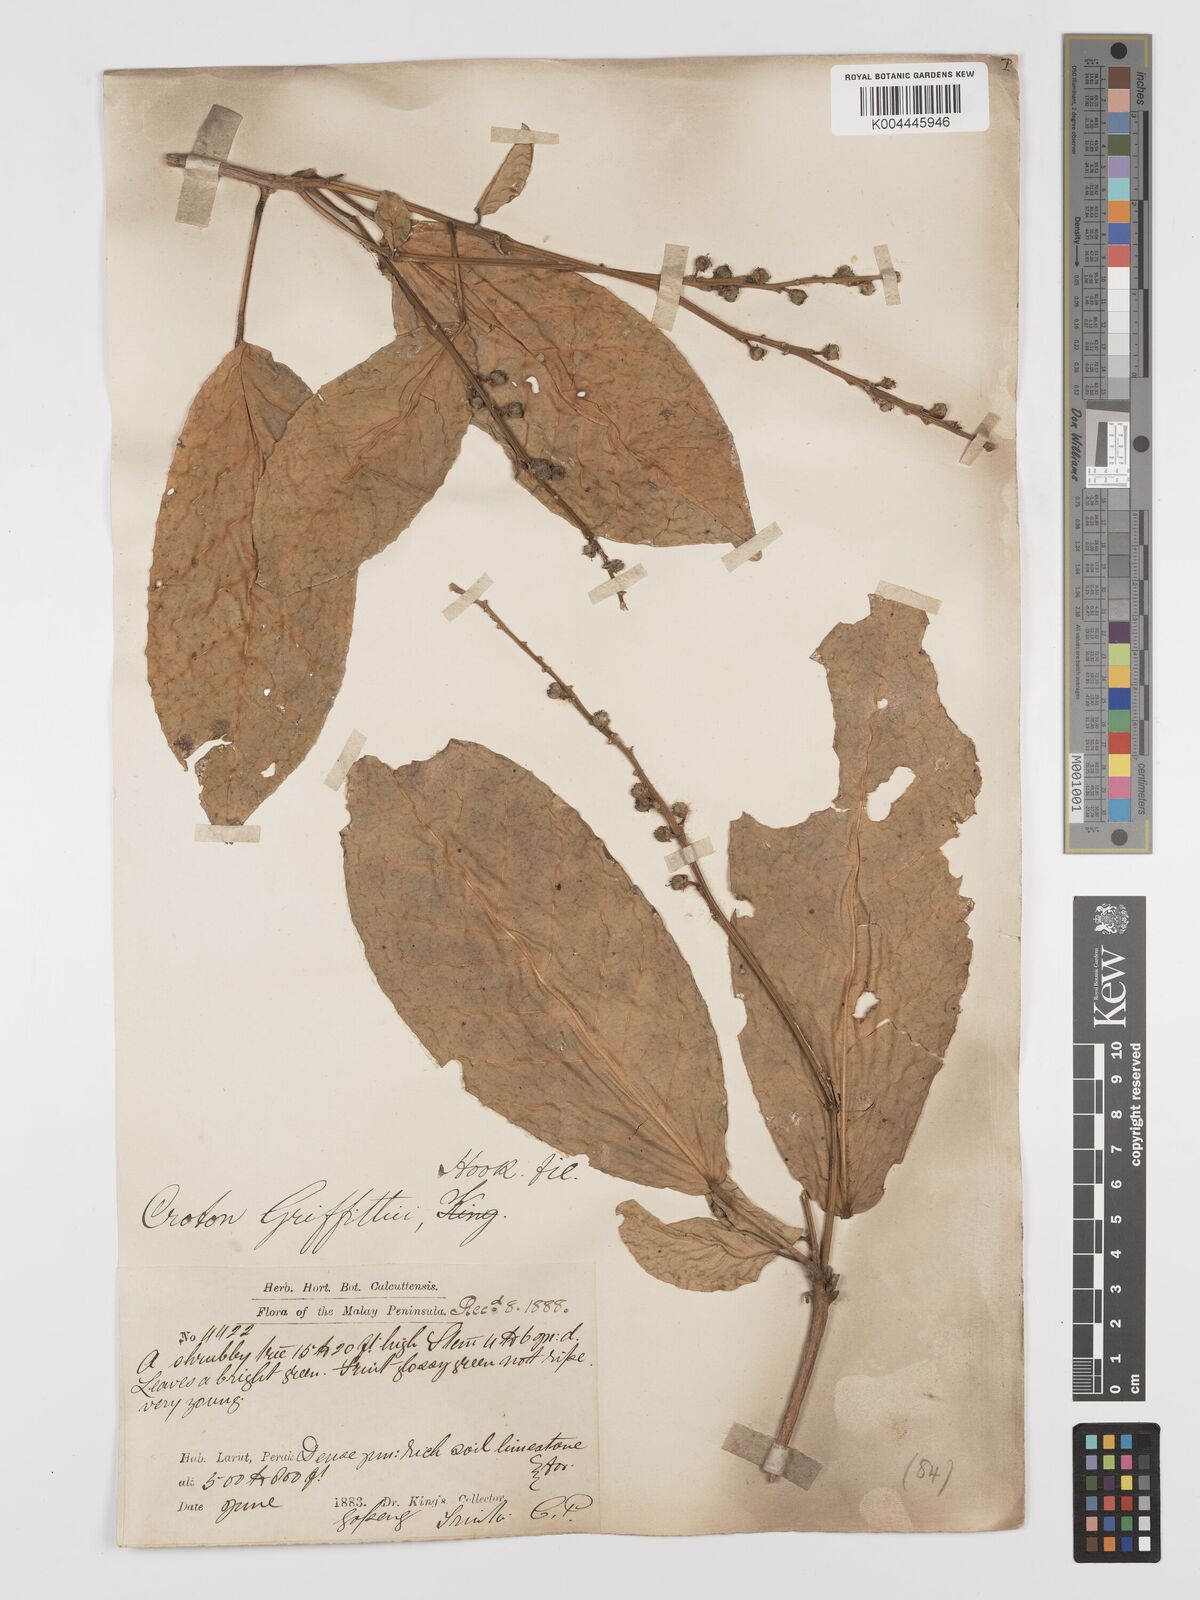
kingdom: Plantae
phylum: Tracheophyta
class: Magnoliopsida
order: Malpighiales
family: Euphorbiaceae
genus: Croton
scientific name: Croton griffithii
